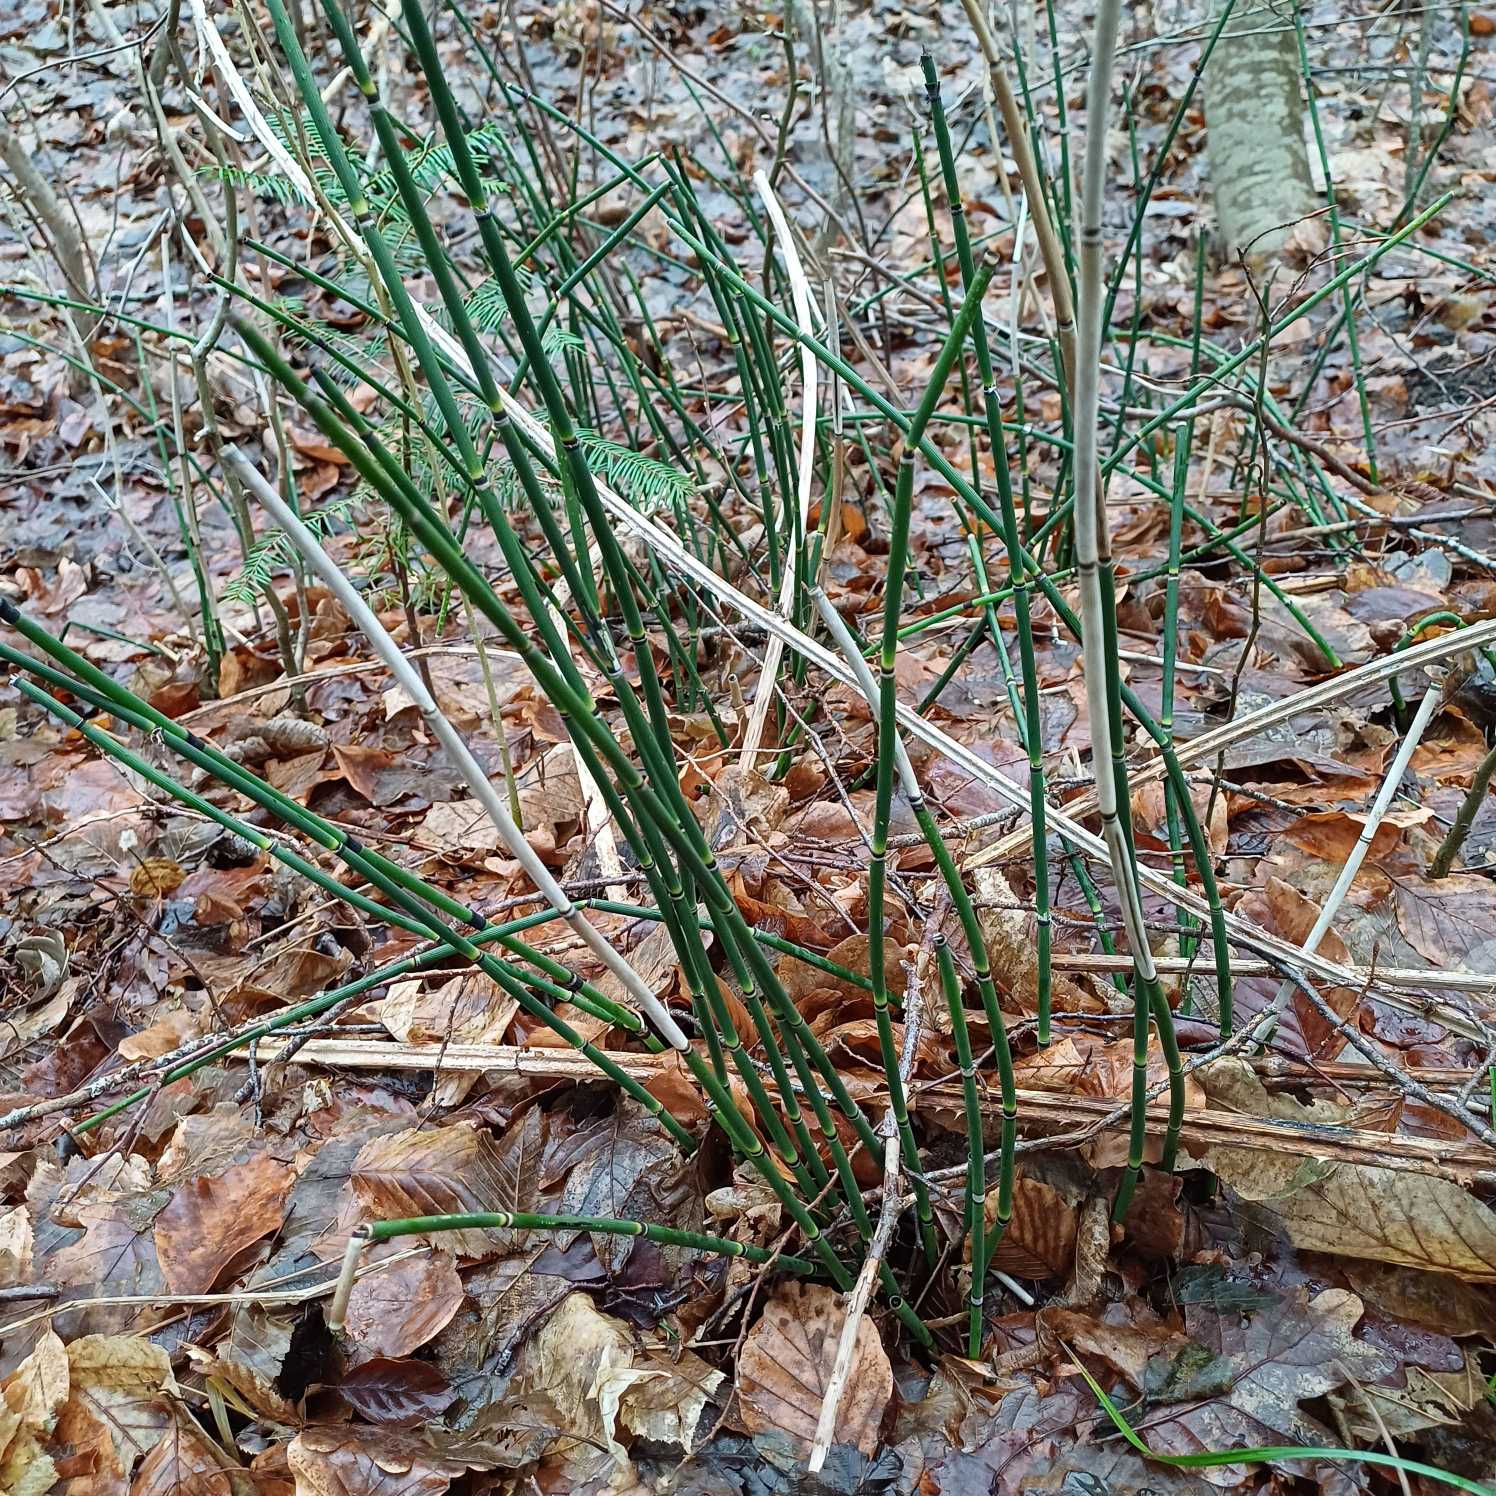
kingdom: Plantae
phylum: Tracheophyta
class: Polypodiopsida
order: Equisetales
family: Equisetaceae
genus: Equisetum
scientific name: Equisetum hyemale
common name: Skavgræs
